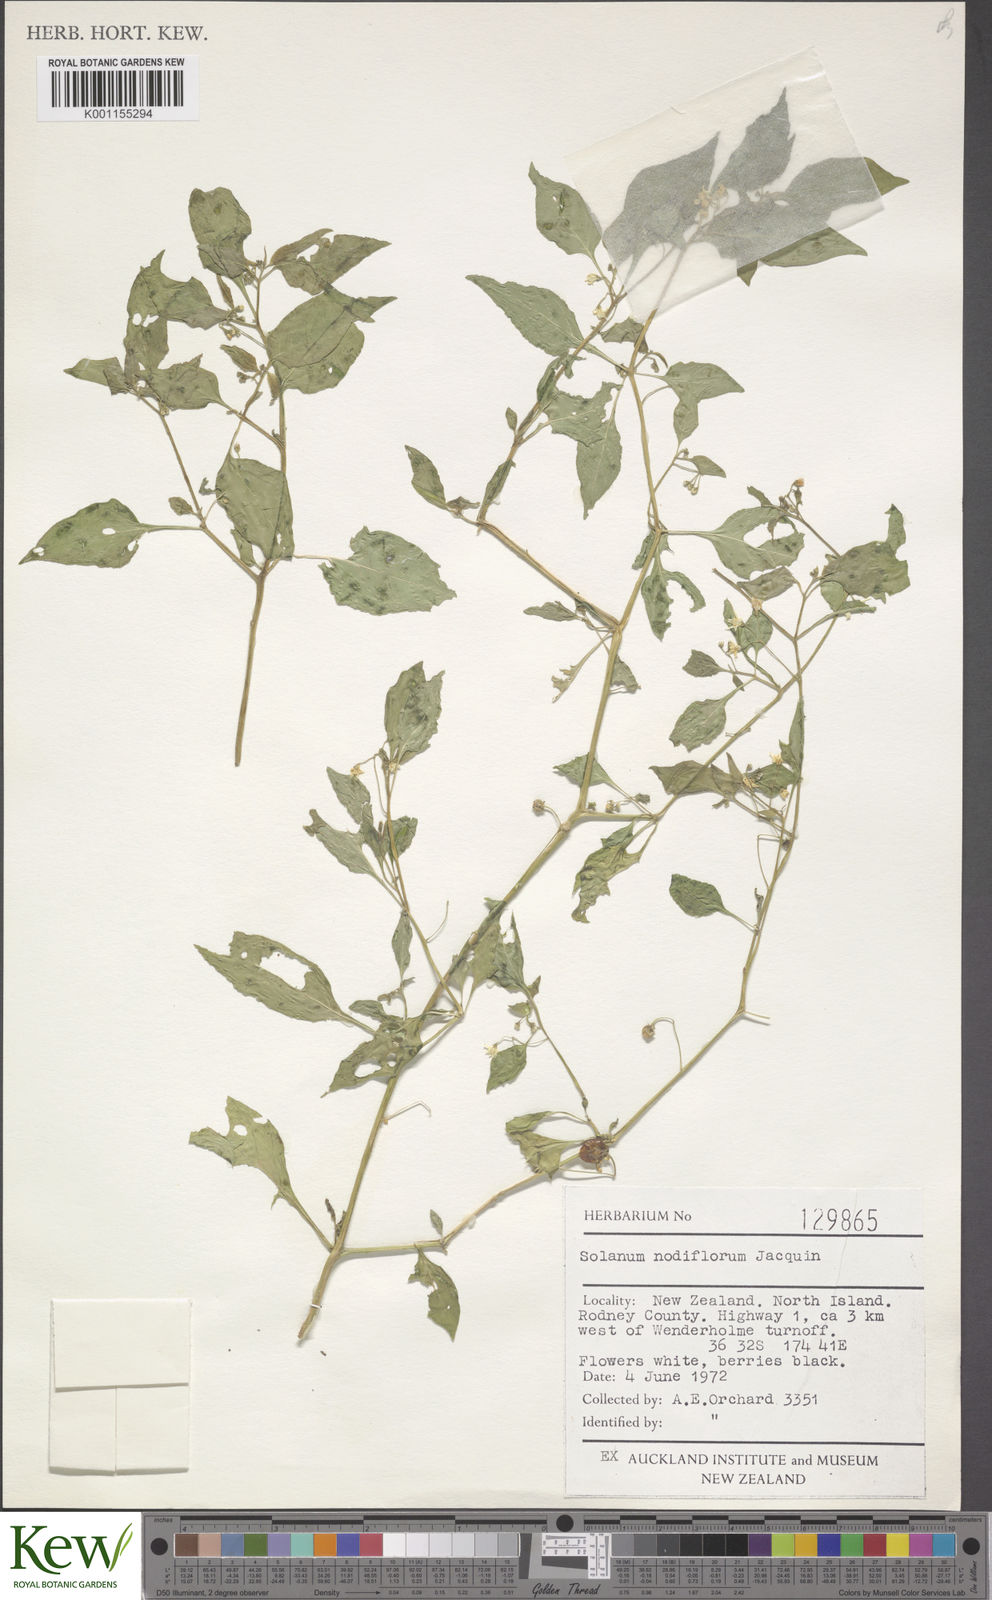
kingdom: Plantae
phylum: Tracheophyta
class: Magnoliopsida
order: Solanales
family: Solanaceae
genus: Solanum
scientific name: Solanum americanum
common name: American black nightshade
